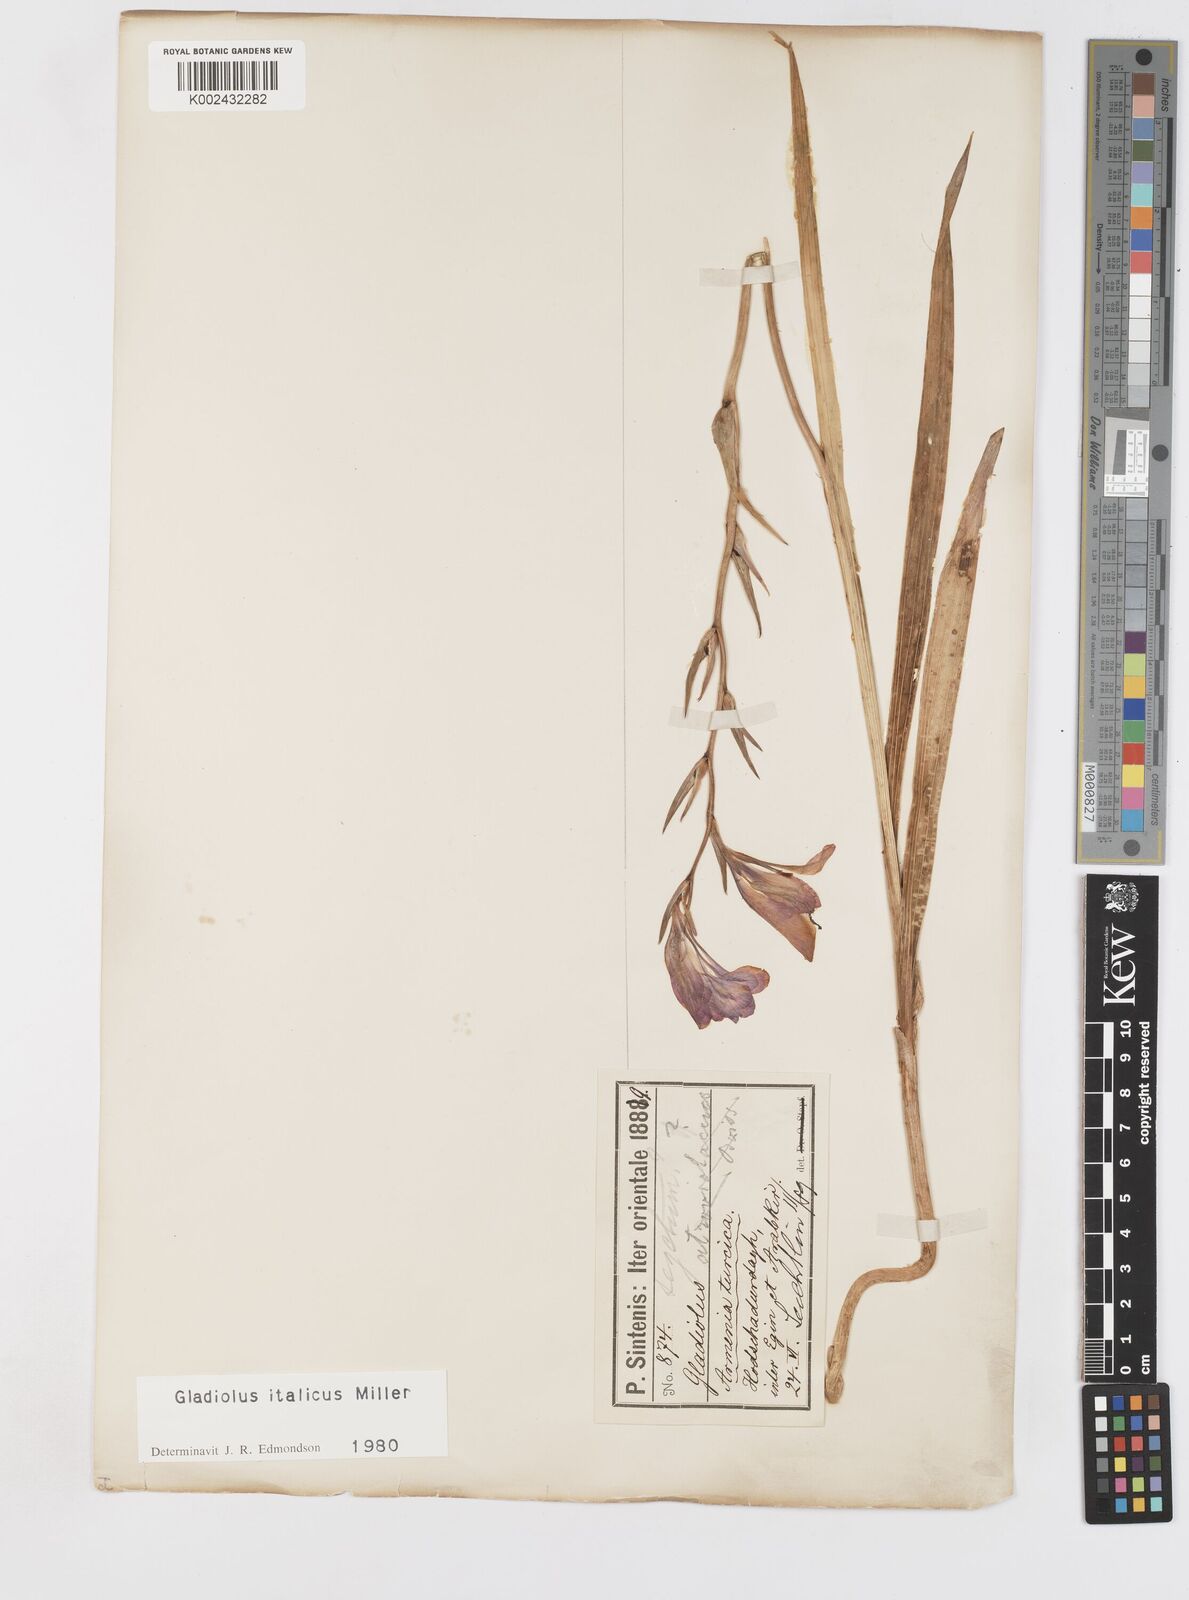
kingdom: Plantae
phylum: Tracheophyta
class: Liliopsida
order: Asparagales
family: Iridaceae
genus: Gladiolus
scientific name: Gladiolus italicus
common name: Field gladiolus
